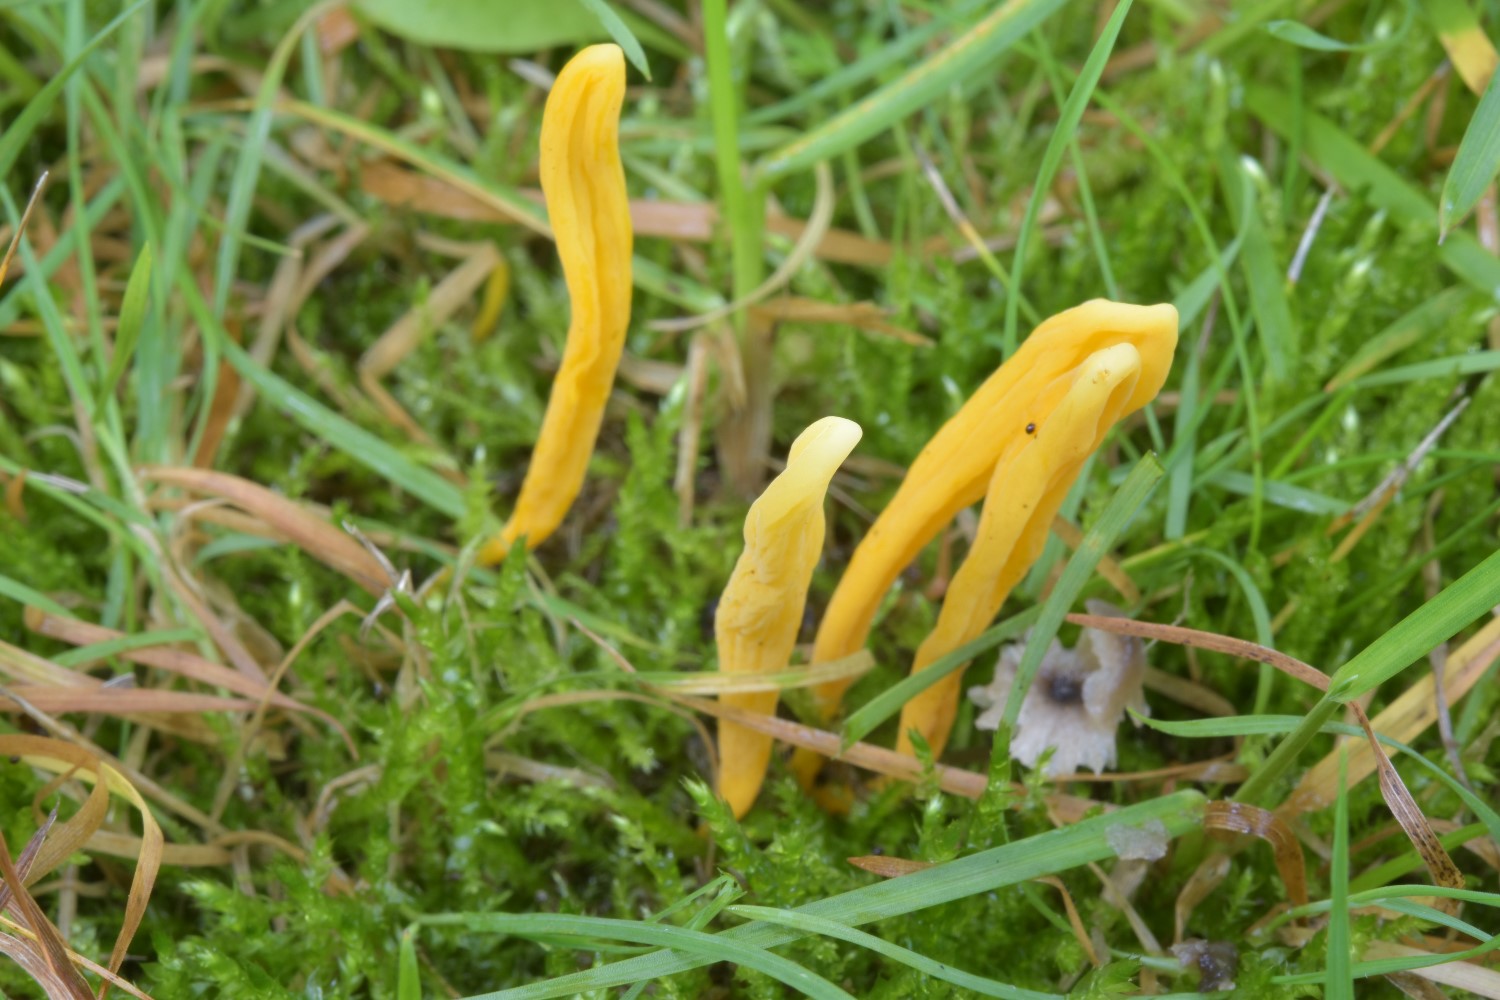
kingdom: Fungi
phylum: Basidiomycota
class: Agaricomycetes
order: Agaricales
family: Clavariaceae
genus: Clavulinopsis
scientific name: Clavulinopsis laeticolor
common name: flamme-køllesvamp
